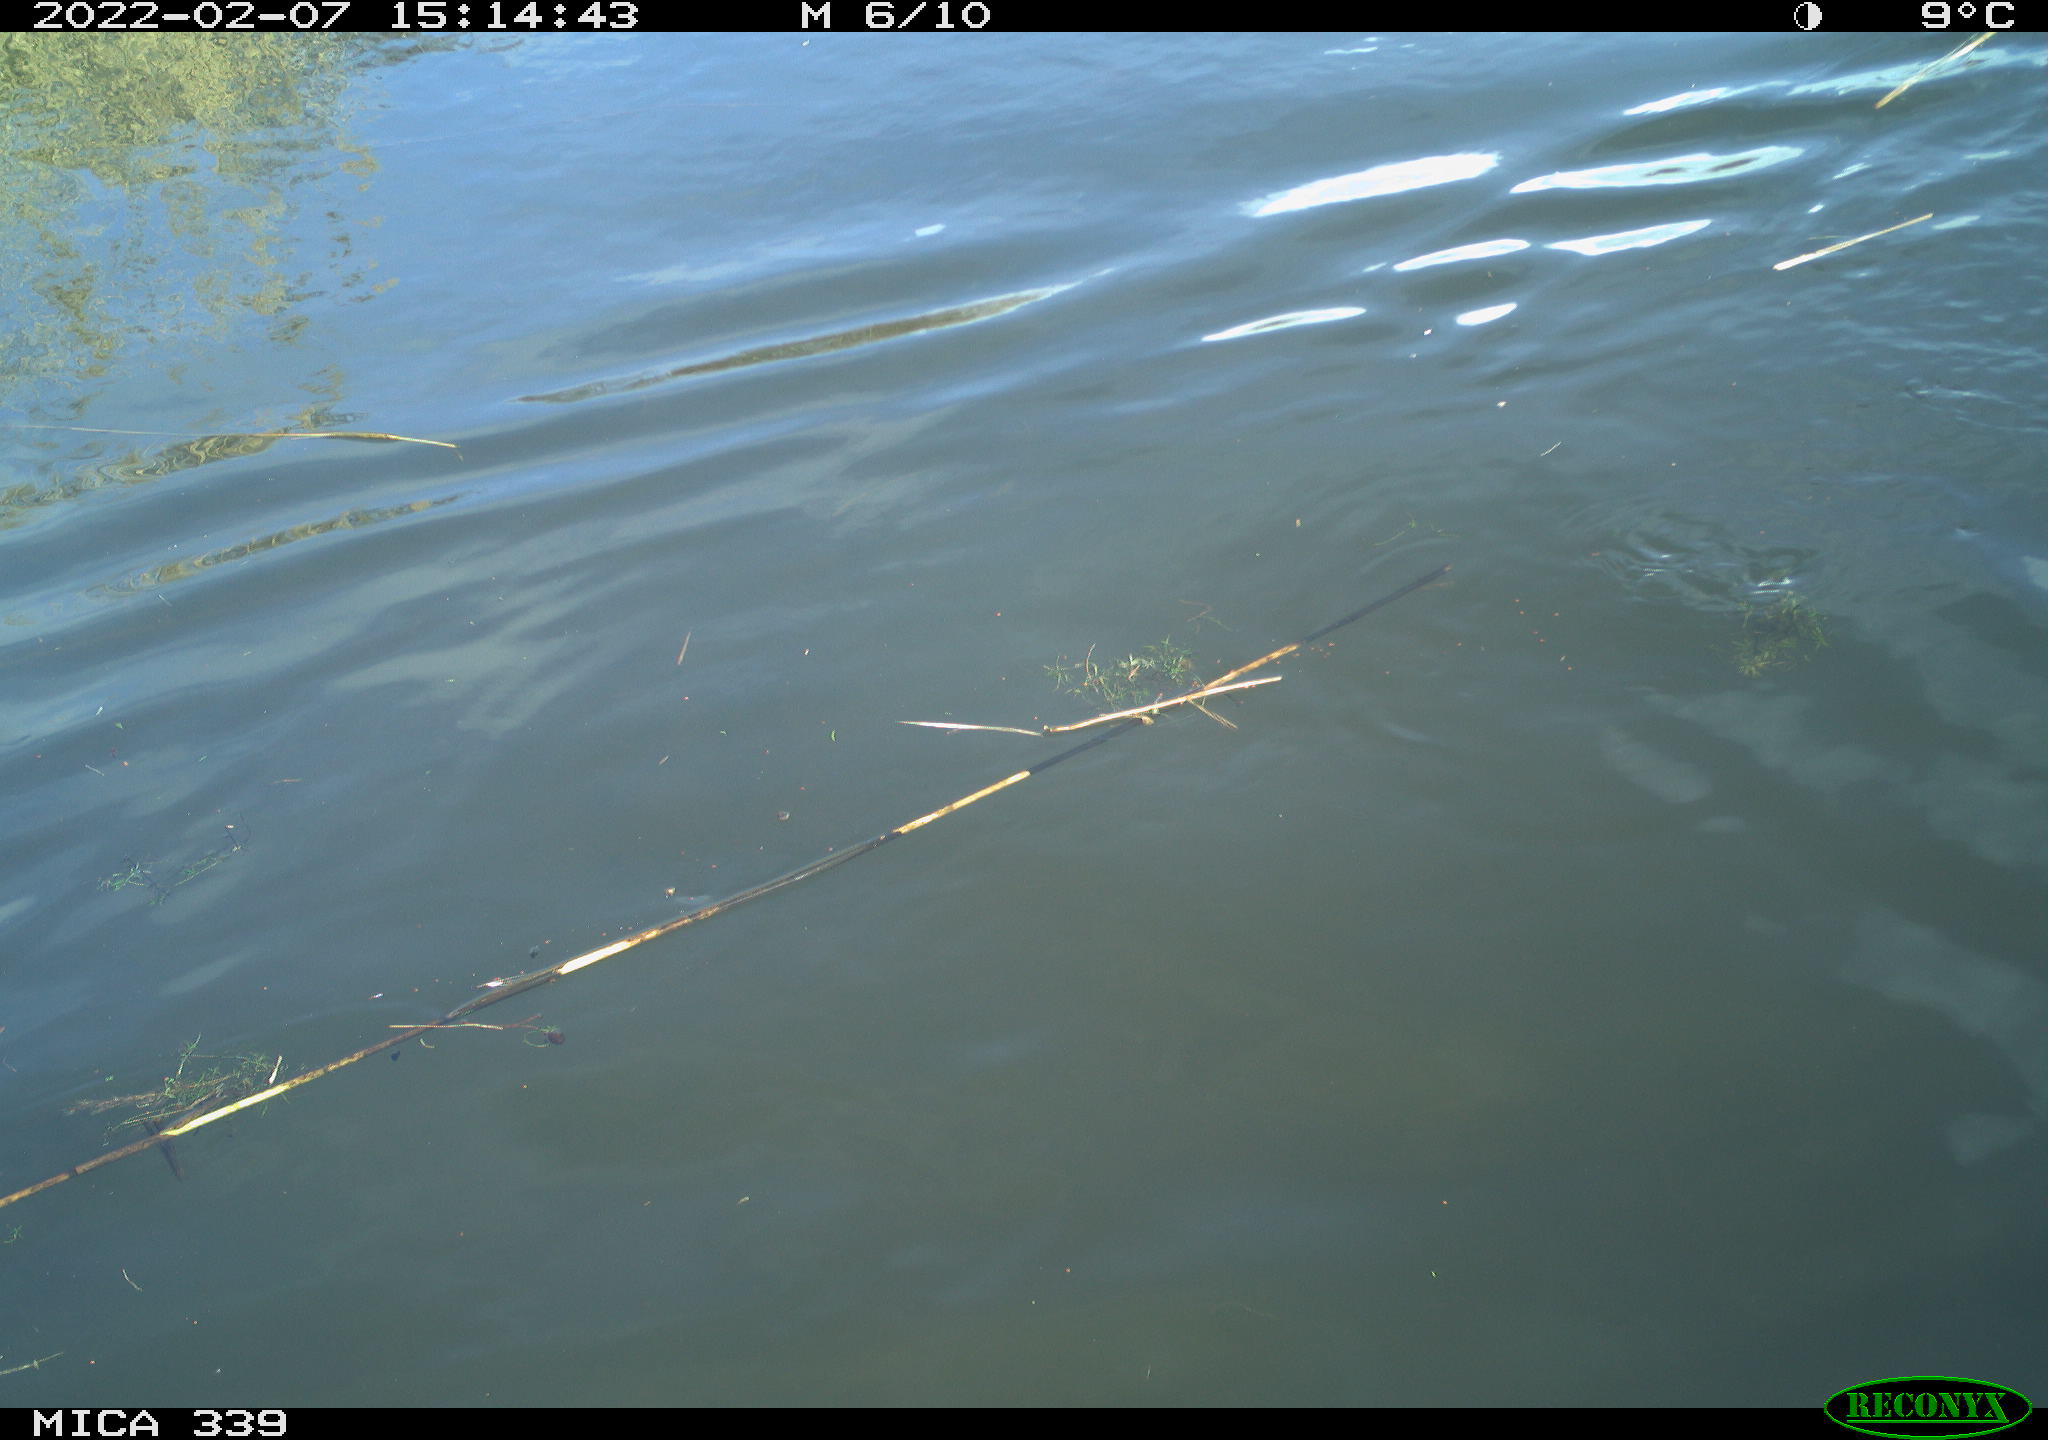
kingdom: Animalia
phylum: Chordata
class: Aves
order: Suliformes
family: Phalacrocoracidae
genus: Phalacrocorax
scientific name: Phalacrocorax carbo
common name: Great cormorant
